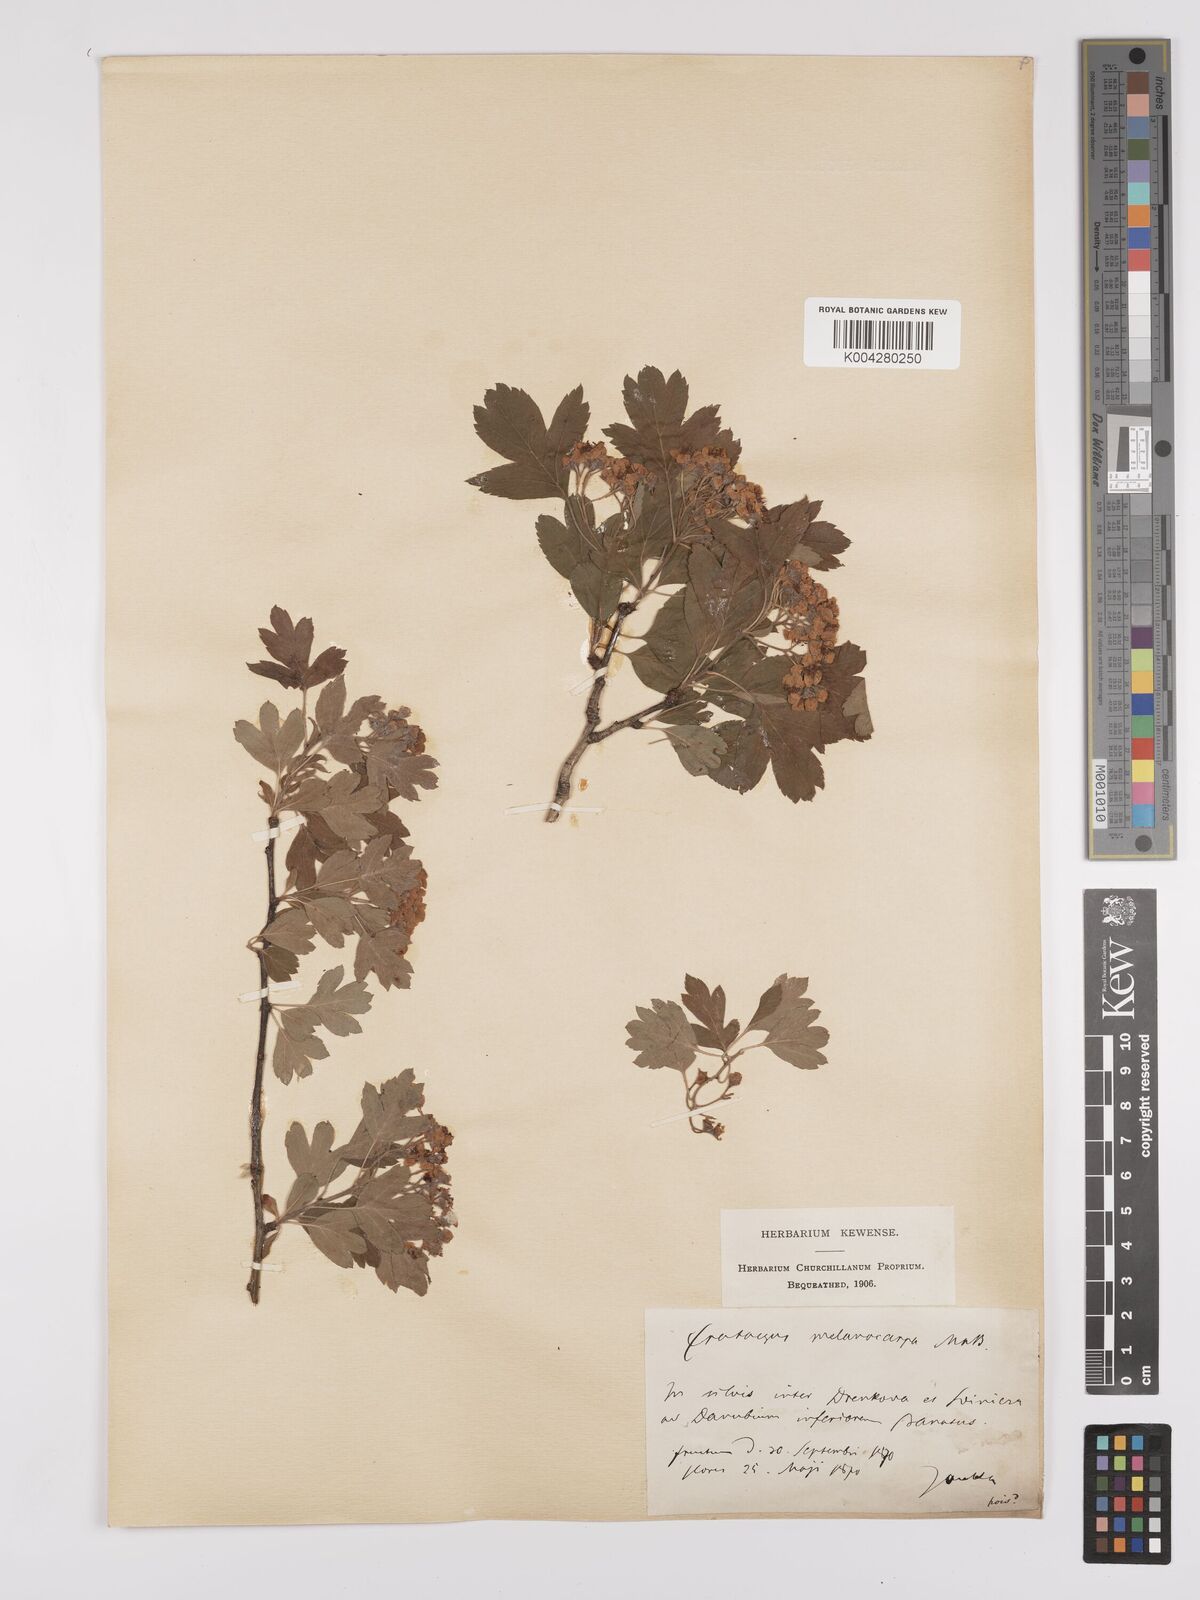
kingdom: Plantae
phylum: Tracheophyta
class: Magnoliopsida
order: Rosales
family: Rosaceae
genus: Crataegus
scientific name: Crataegus pentagyna
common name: Small-flowered black hawthorn
